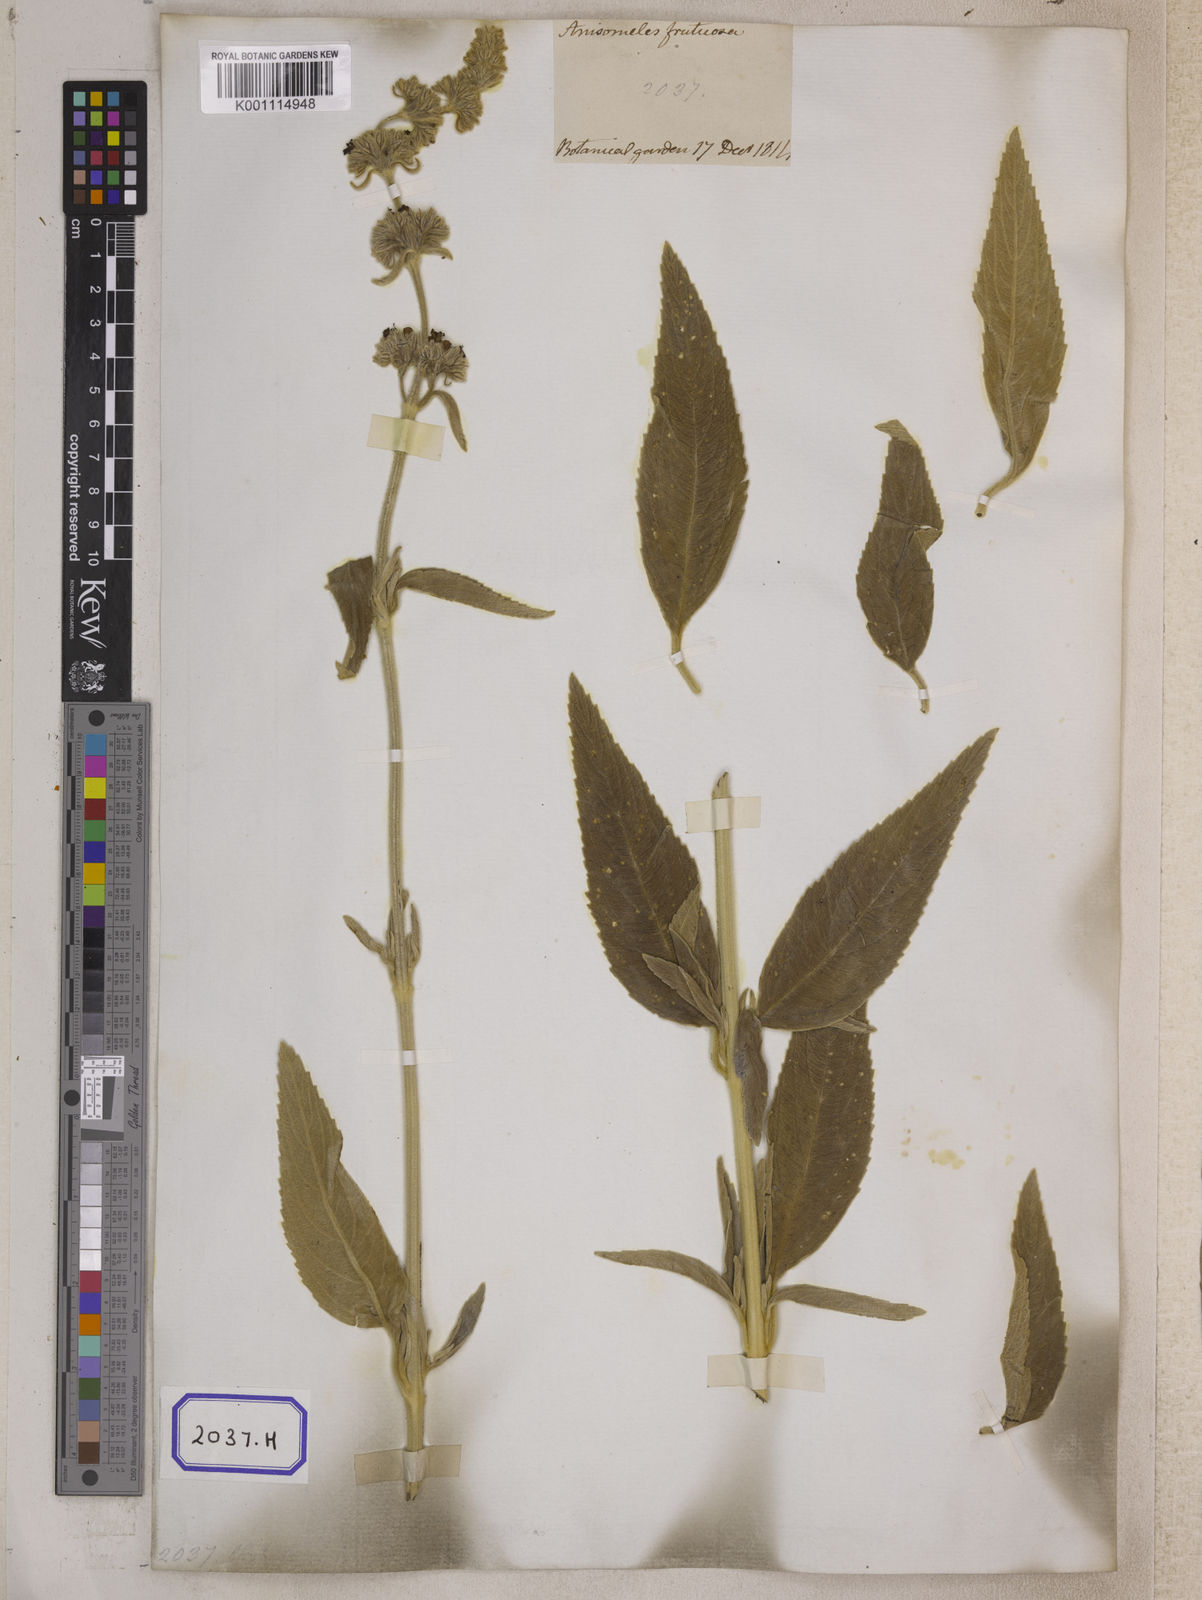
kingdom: Plantae
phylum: Tracheophyta
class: Magnoliopsida
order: Lamiales
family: Lamiaceae
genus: Anisomeles
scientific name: Anisomeles malabarica
